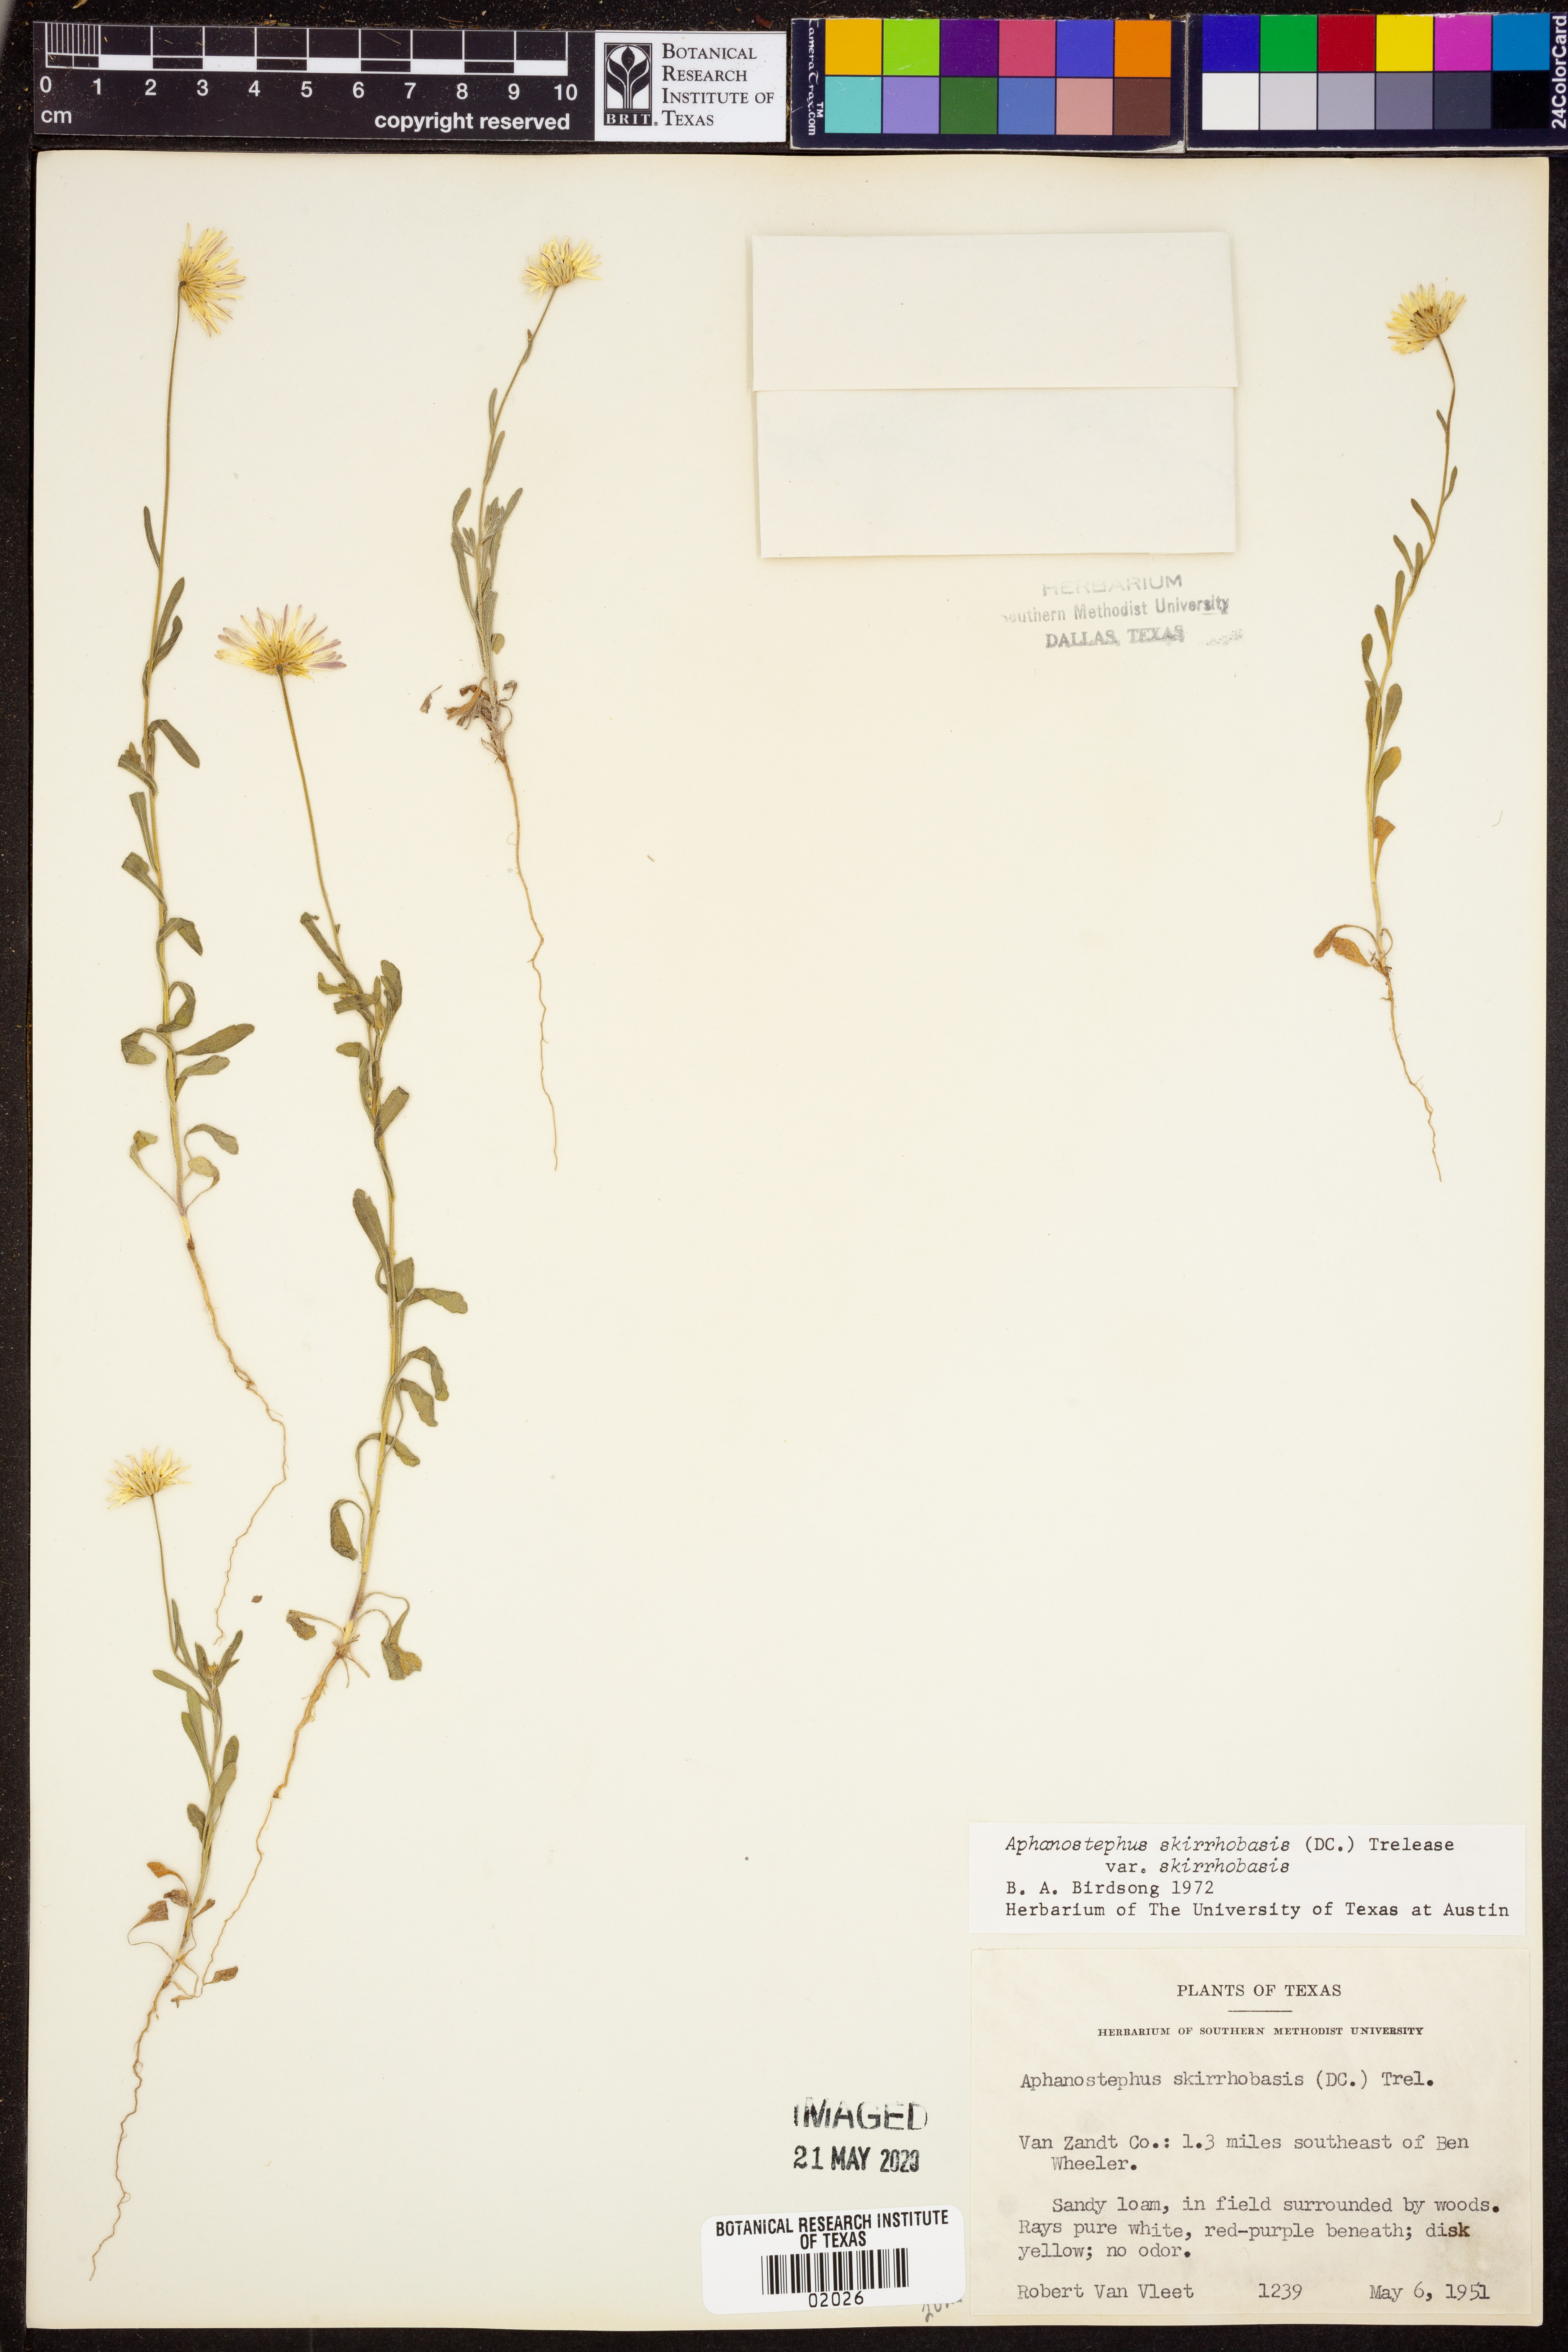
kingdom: Plantae
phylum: Tracheophyta
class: Magnoliopsida
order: Asterales
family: Asteraceae
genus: Aphanostephus
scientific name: Aphanostephus skirrhobasis
